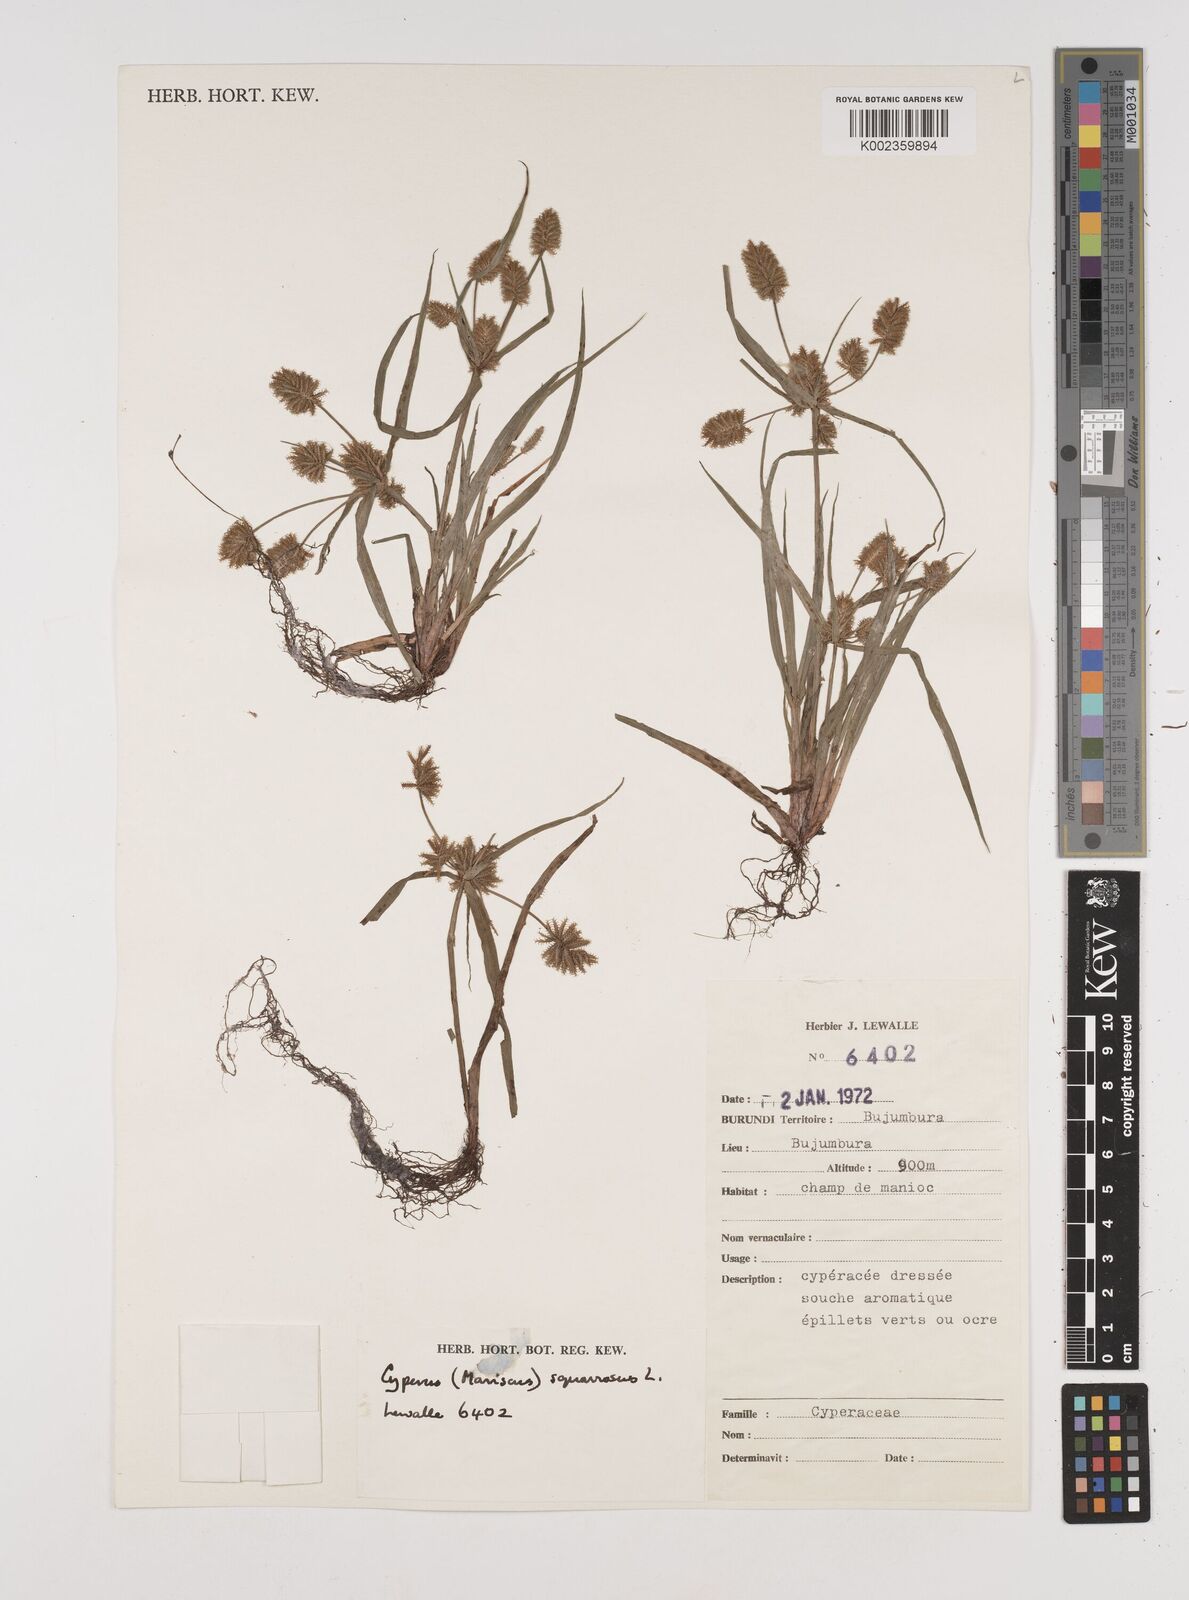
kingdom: Plantae
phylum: Tracheophyta
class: Liliopsida
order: Poales
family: Cyperaceae
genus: Cyperus
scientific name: Cyperus squarrosus
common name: Awned cyperus
